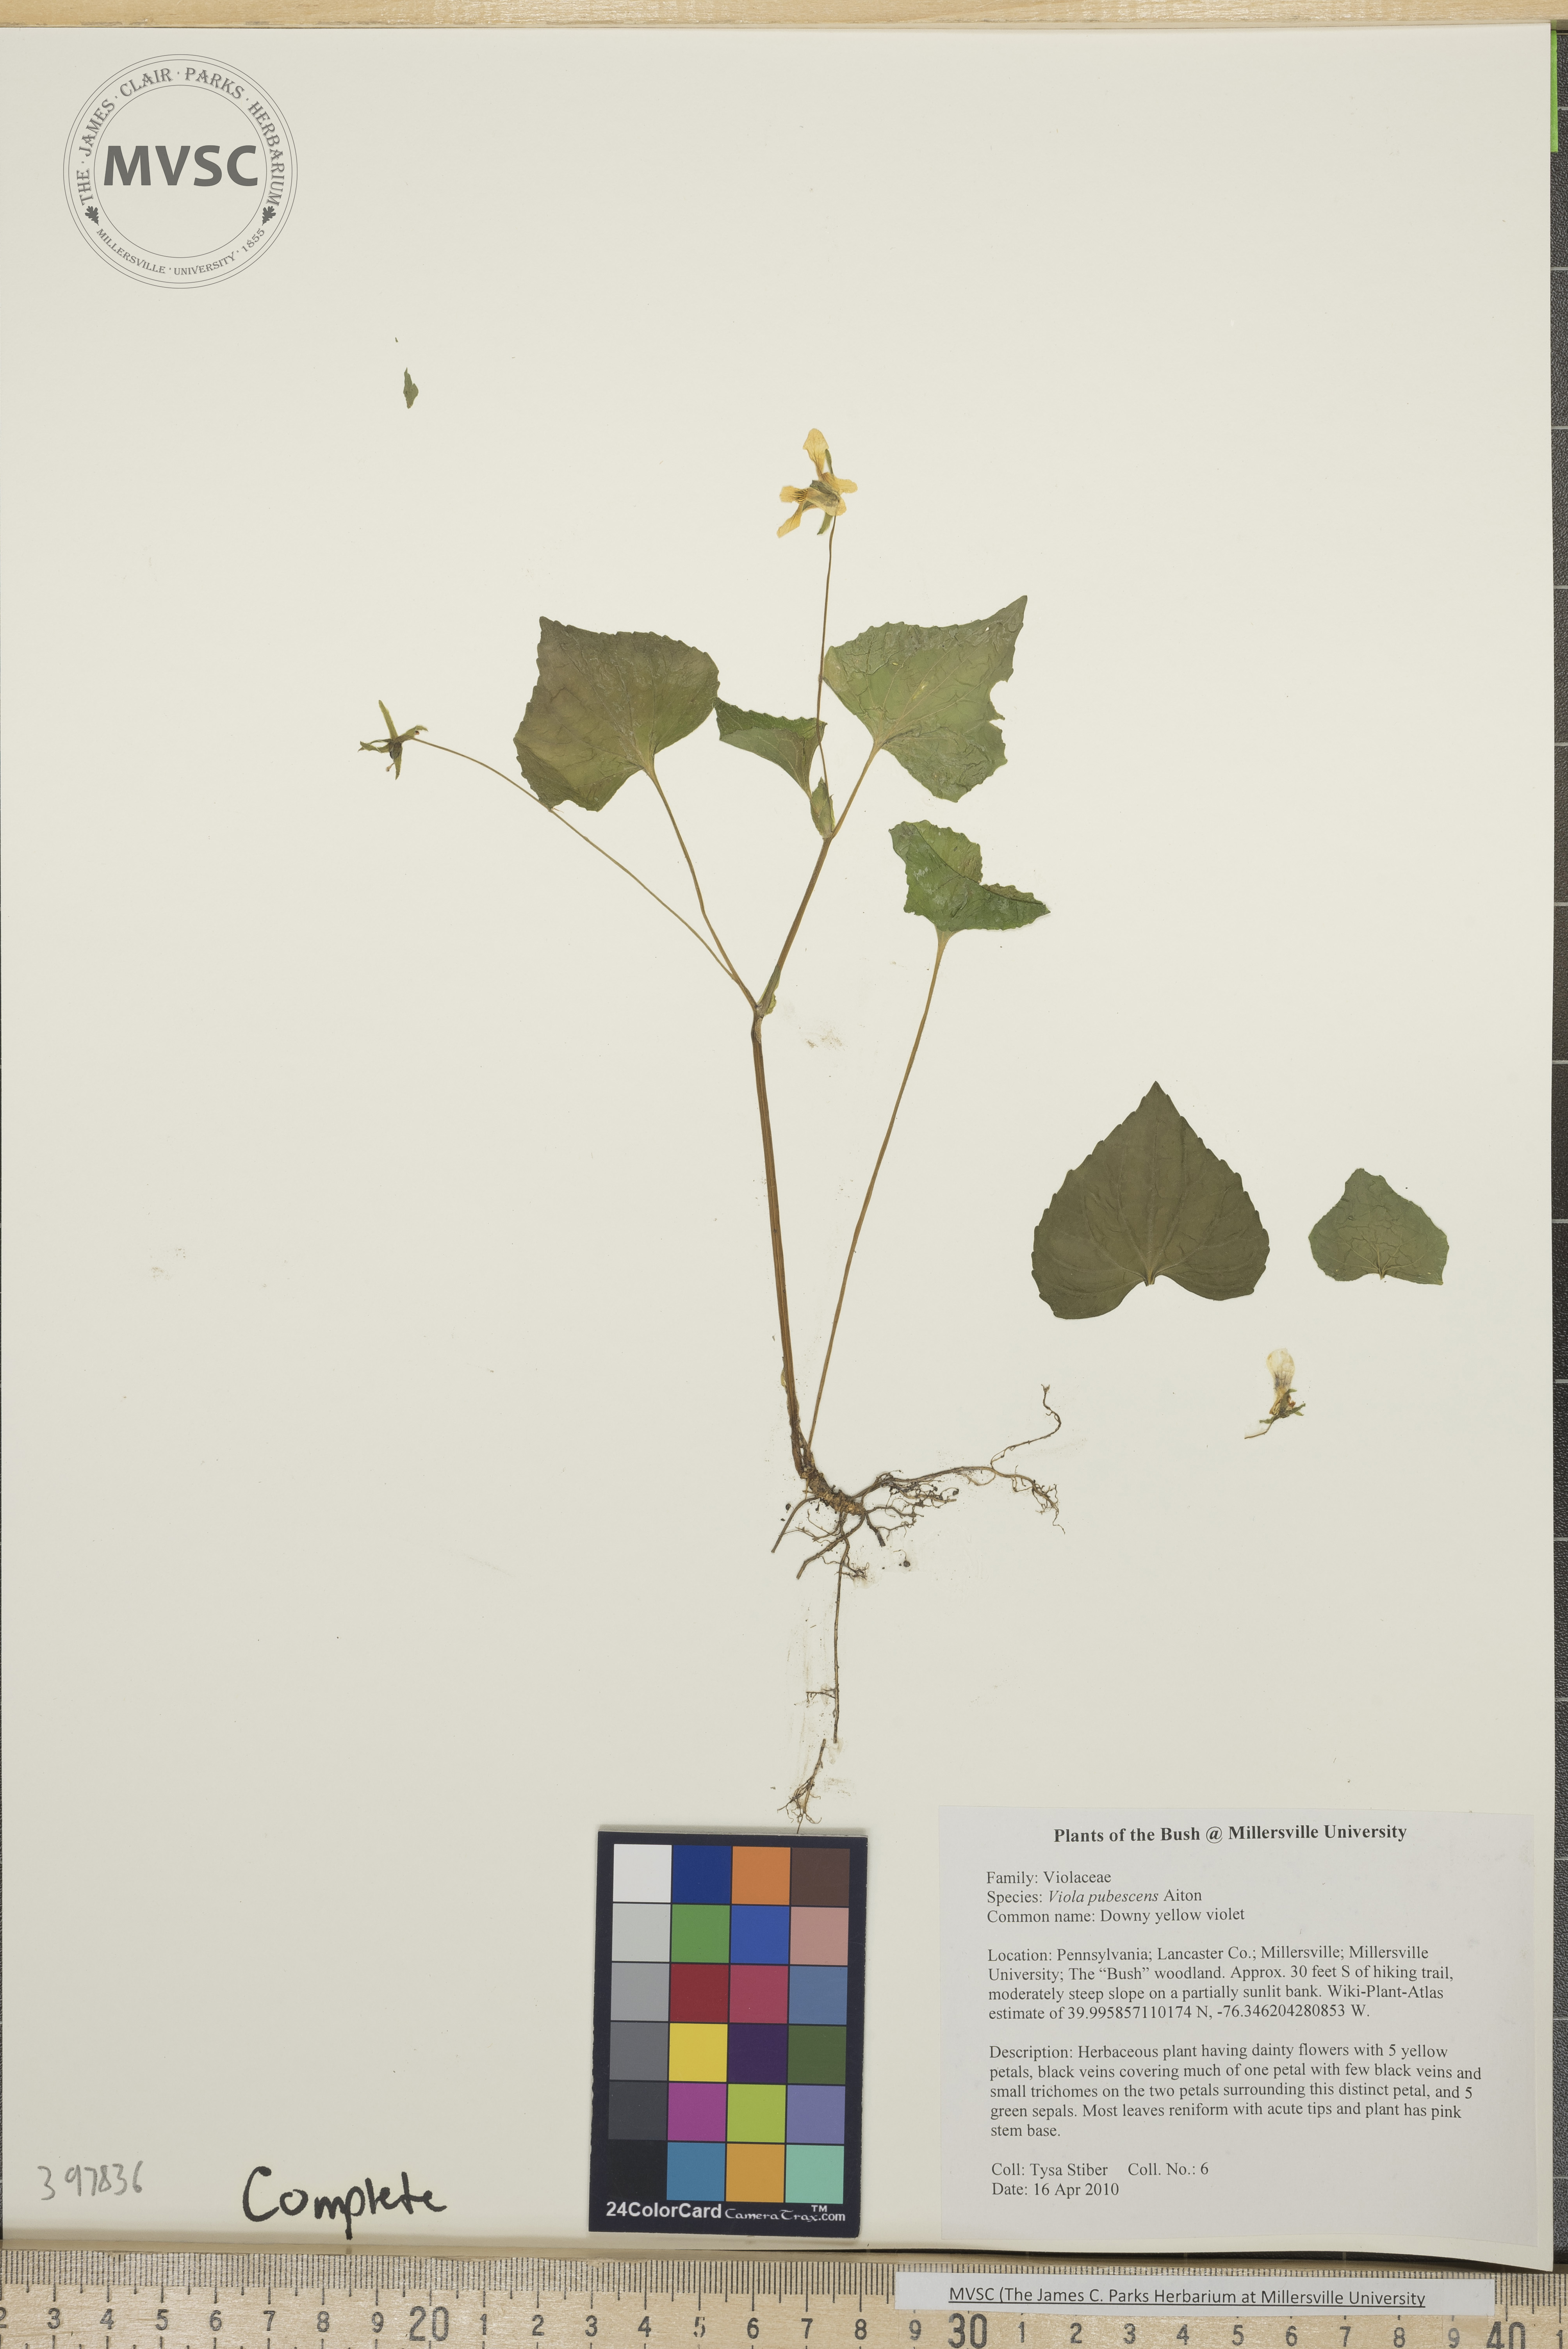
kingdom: Plantae
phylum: Tracheophyta
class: Magnoliopsida
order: Malpighiales
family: Violaceae
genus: Viola
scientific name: Viola pubescens
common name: downy yellow violet
